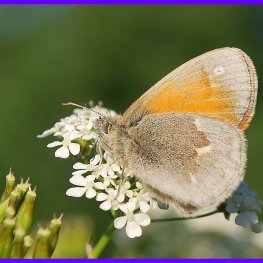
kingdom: Animalia
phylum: Arthropoda
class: Insecta
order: Lepidoptera
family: Nymphalidae
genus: Coenonympha
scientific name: Coenonympha tullia
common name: Large Heath
